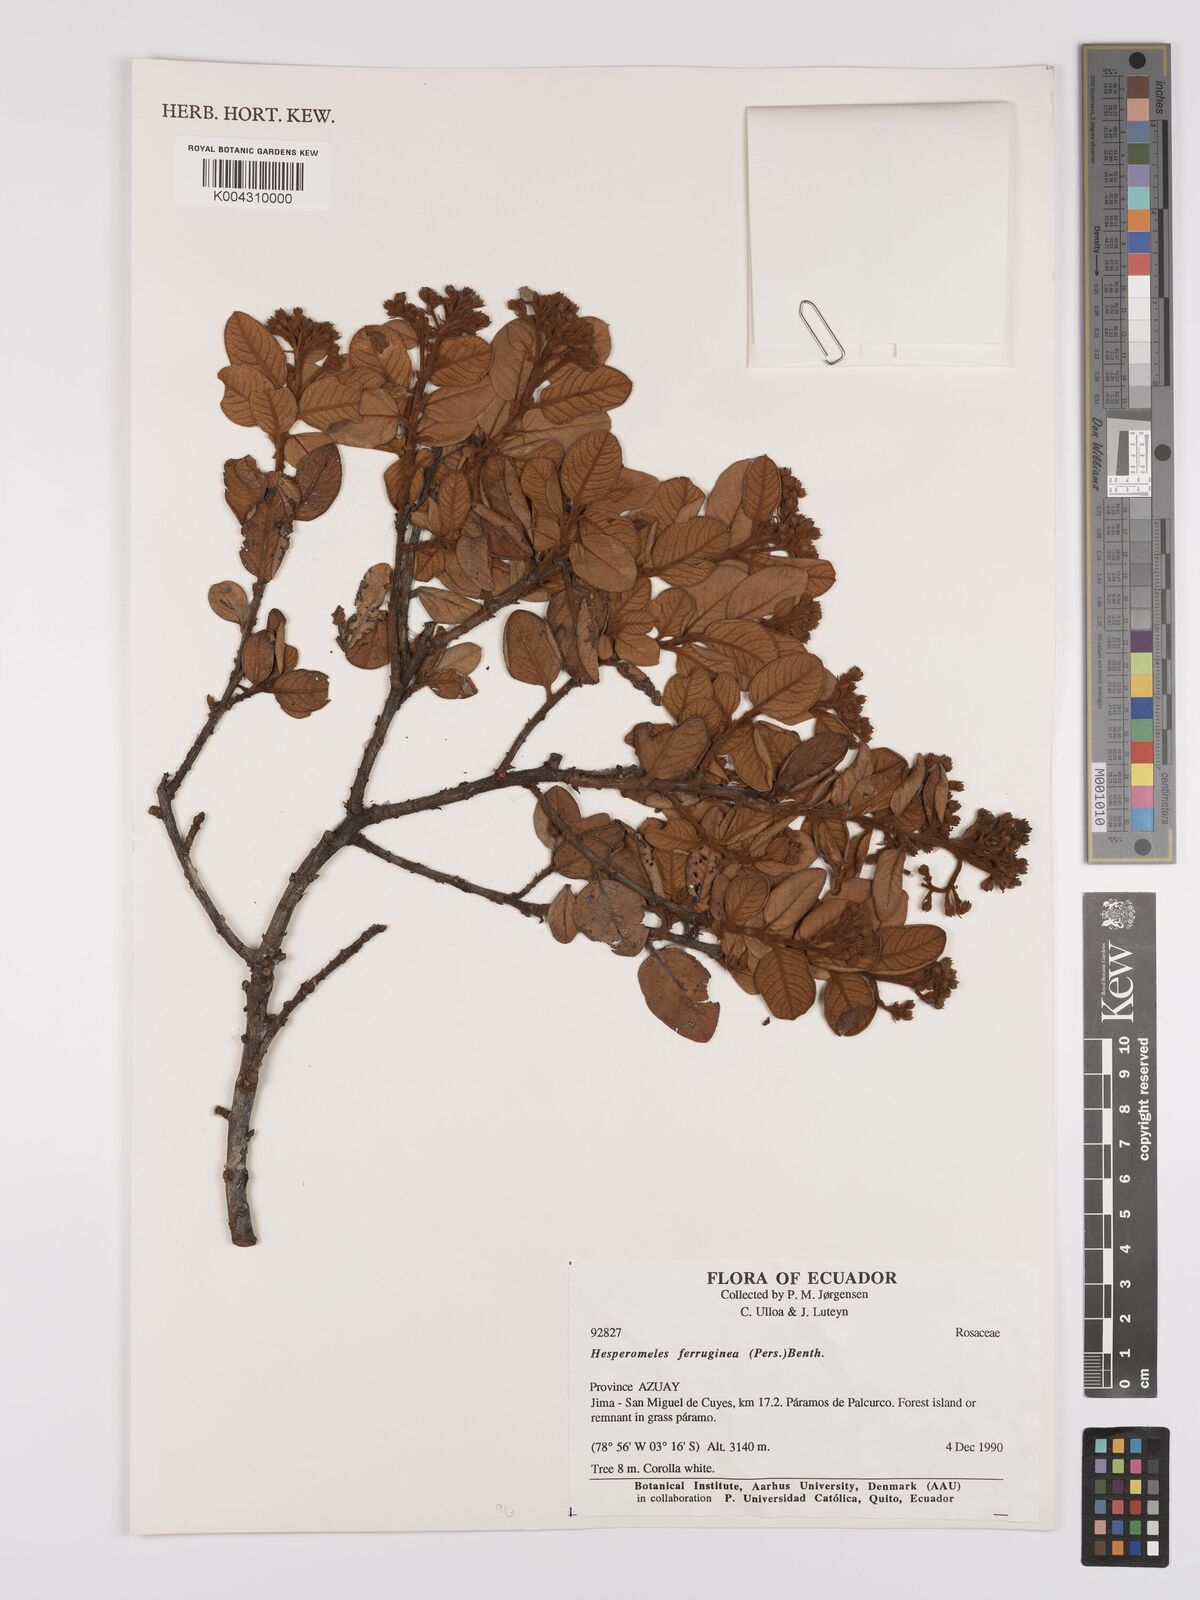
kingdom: Plantae
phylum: Tracheophyta
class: Magnoliopsida
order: Rosales
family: Rosaceae
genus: Hesperomeles
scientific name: Hesperomeles ferruginea
